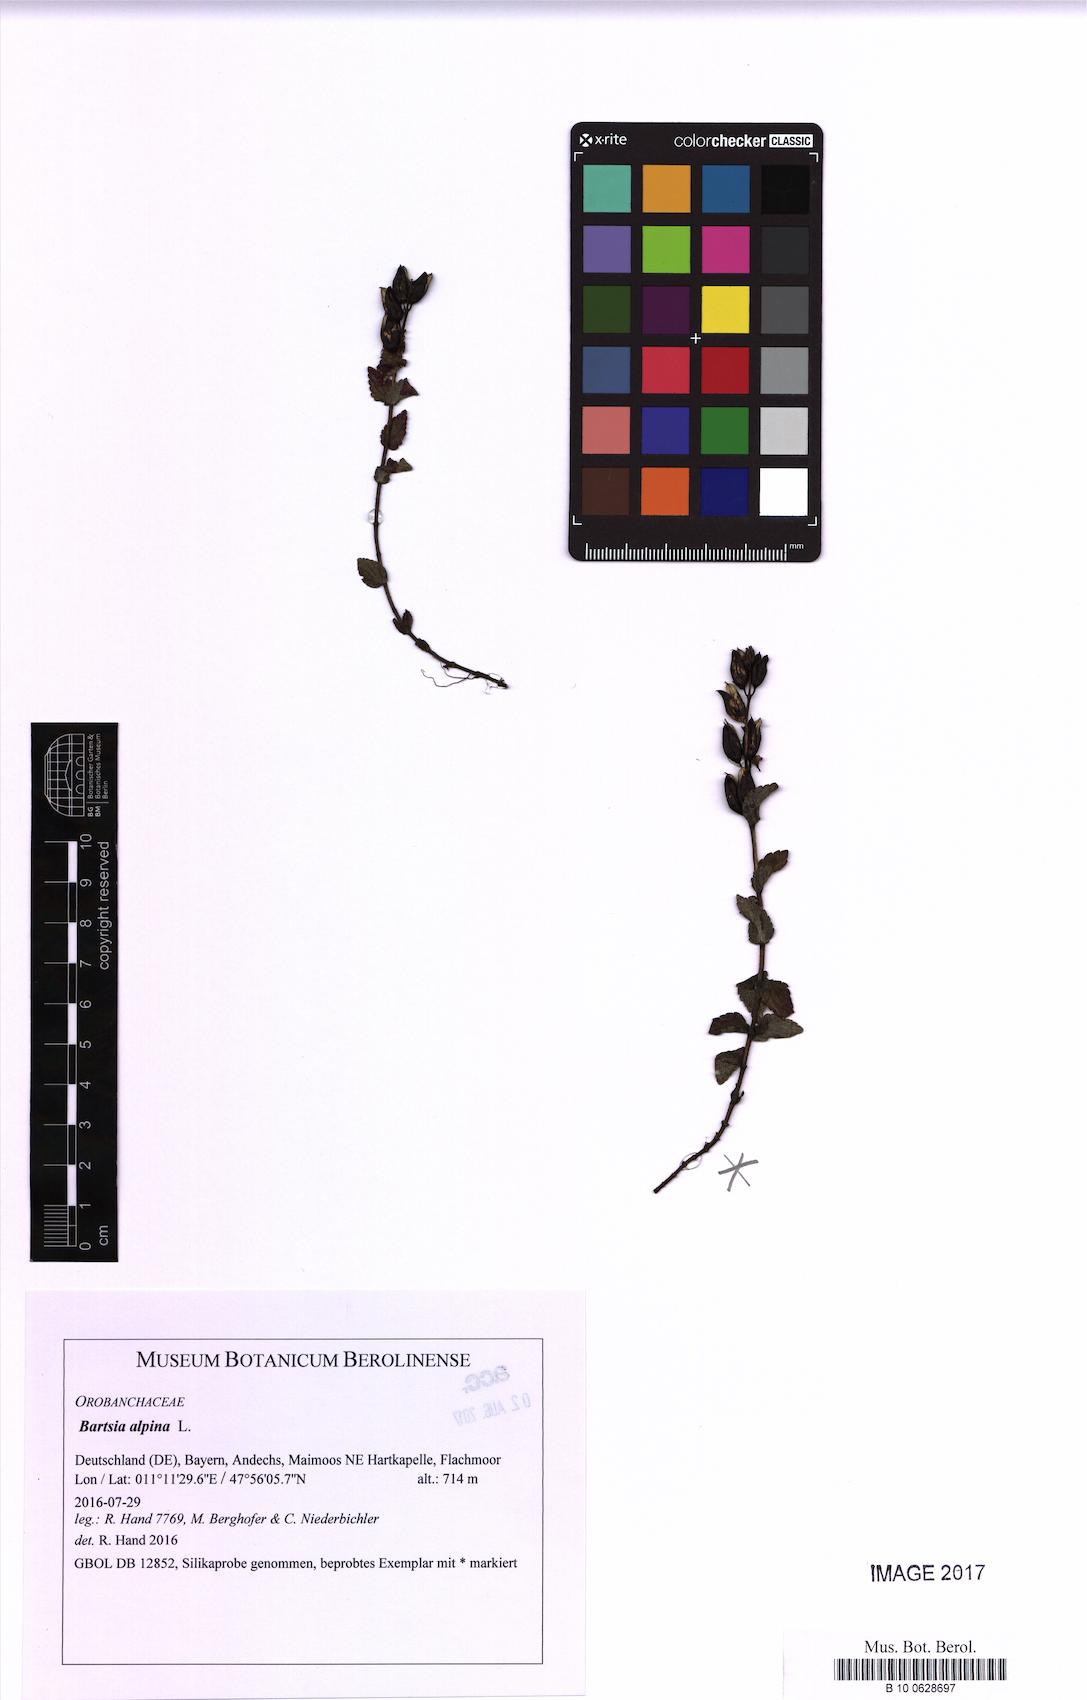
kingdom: Plantae
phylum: Tracheophyta
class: Magnoliopsida
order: Lamiales
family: Orobanchaceae
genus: Bartsia
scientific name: Bartsia alpina
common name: Alpine bartsia
